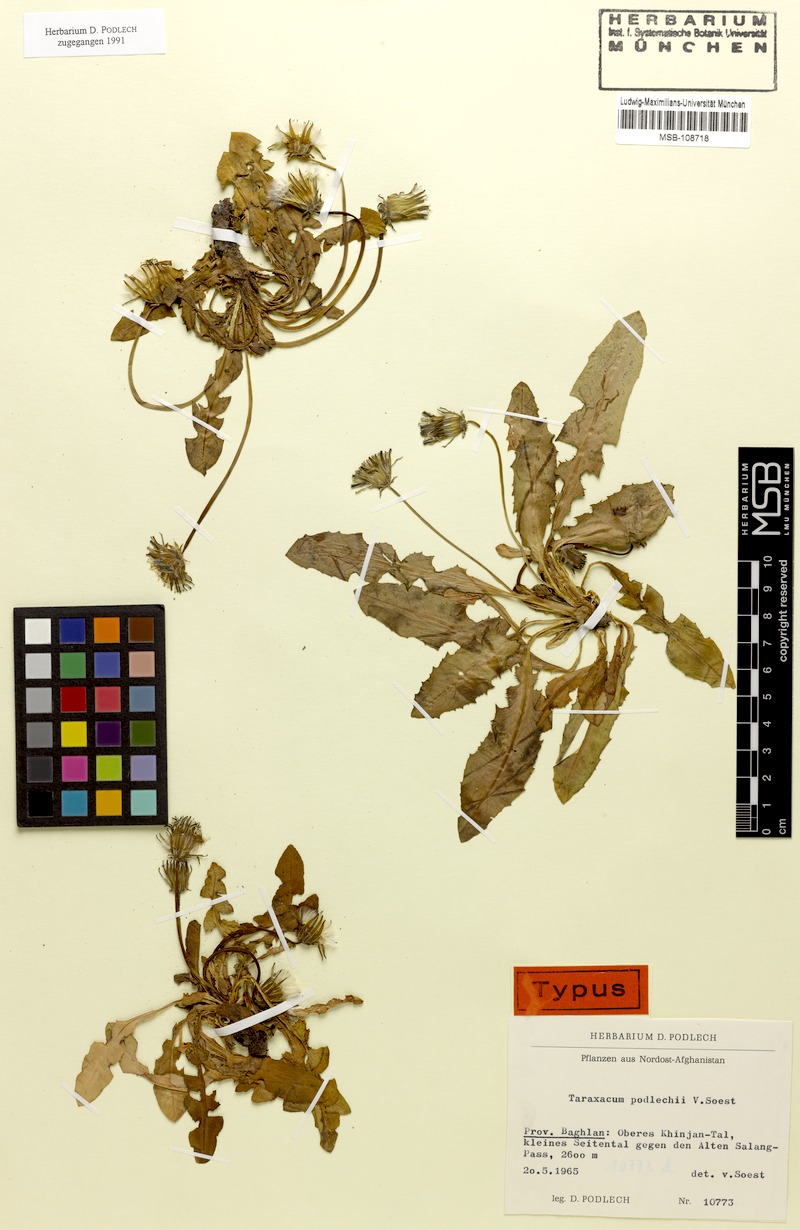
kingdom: Plantae
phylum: Tracheophyta
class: Magnoliopsida
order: Asterales
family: Asteraceae
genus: Taraxacum
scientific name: Taraxacum podlechii
